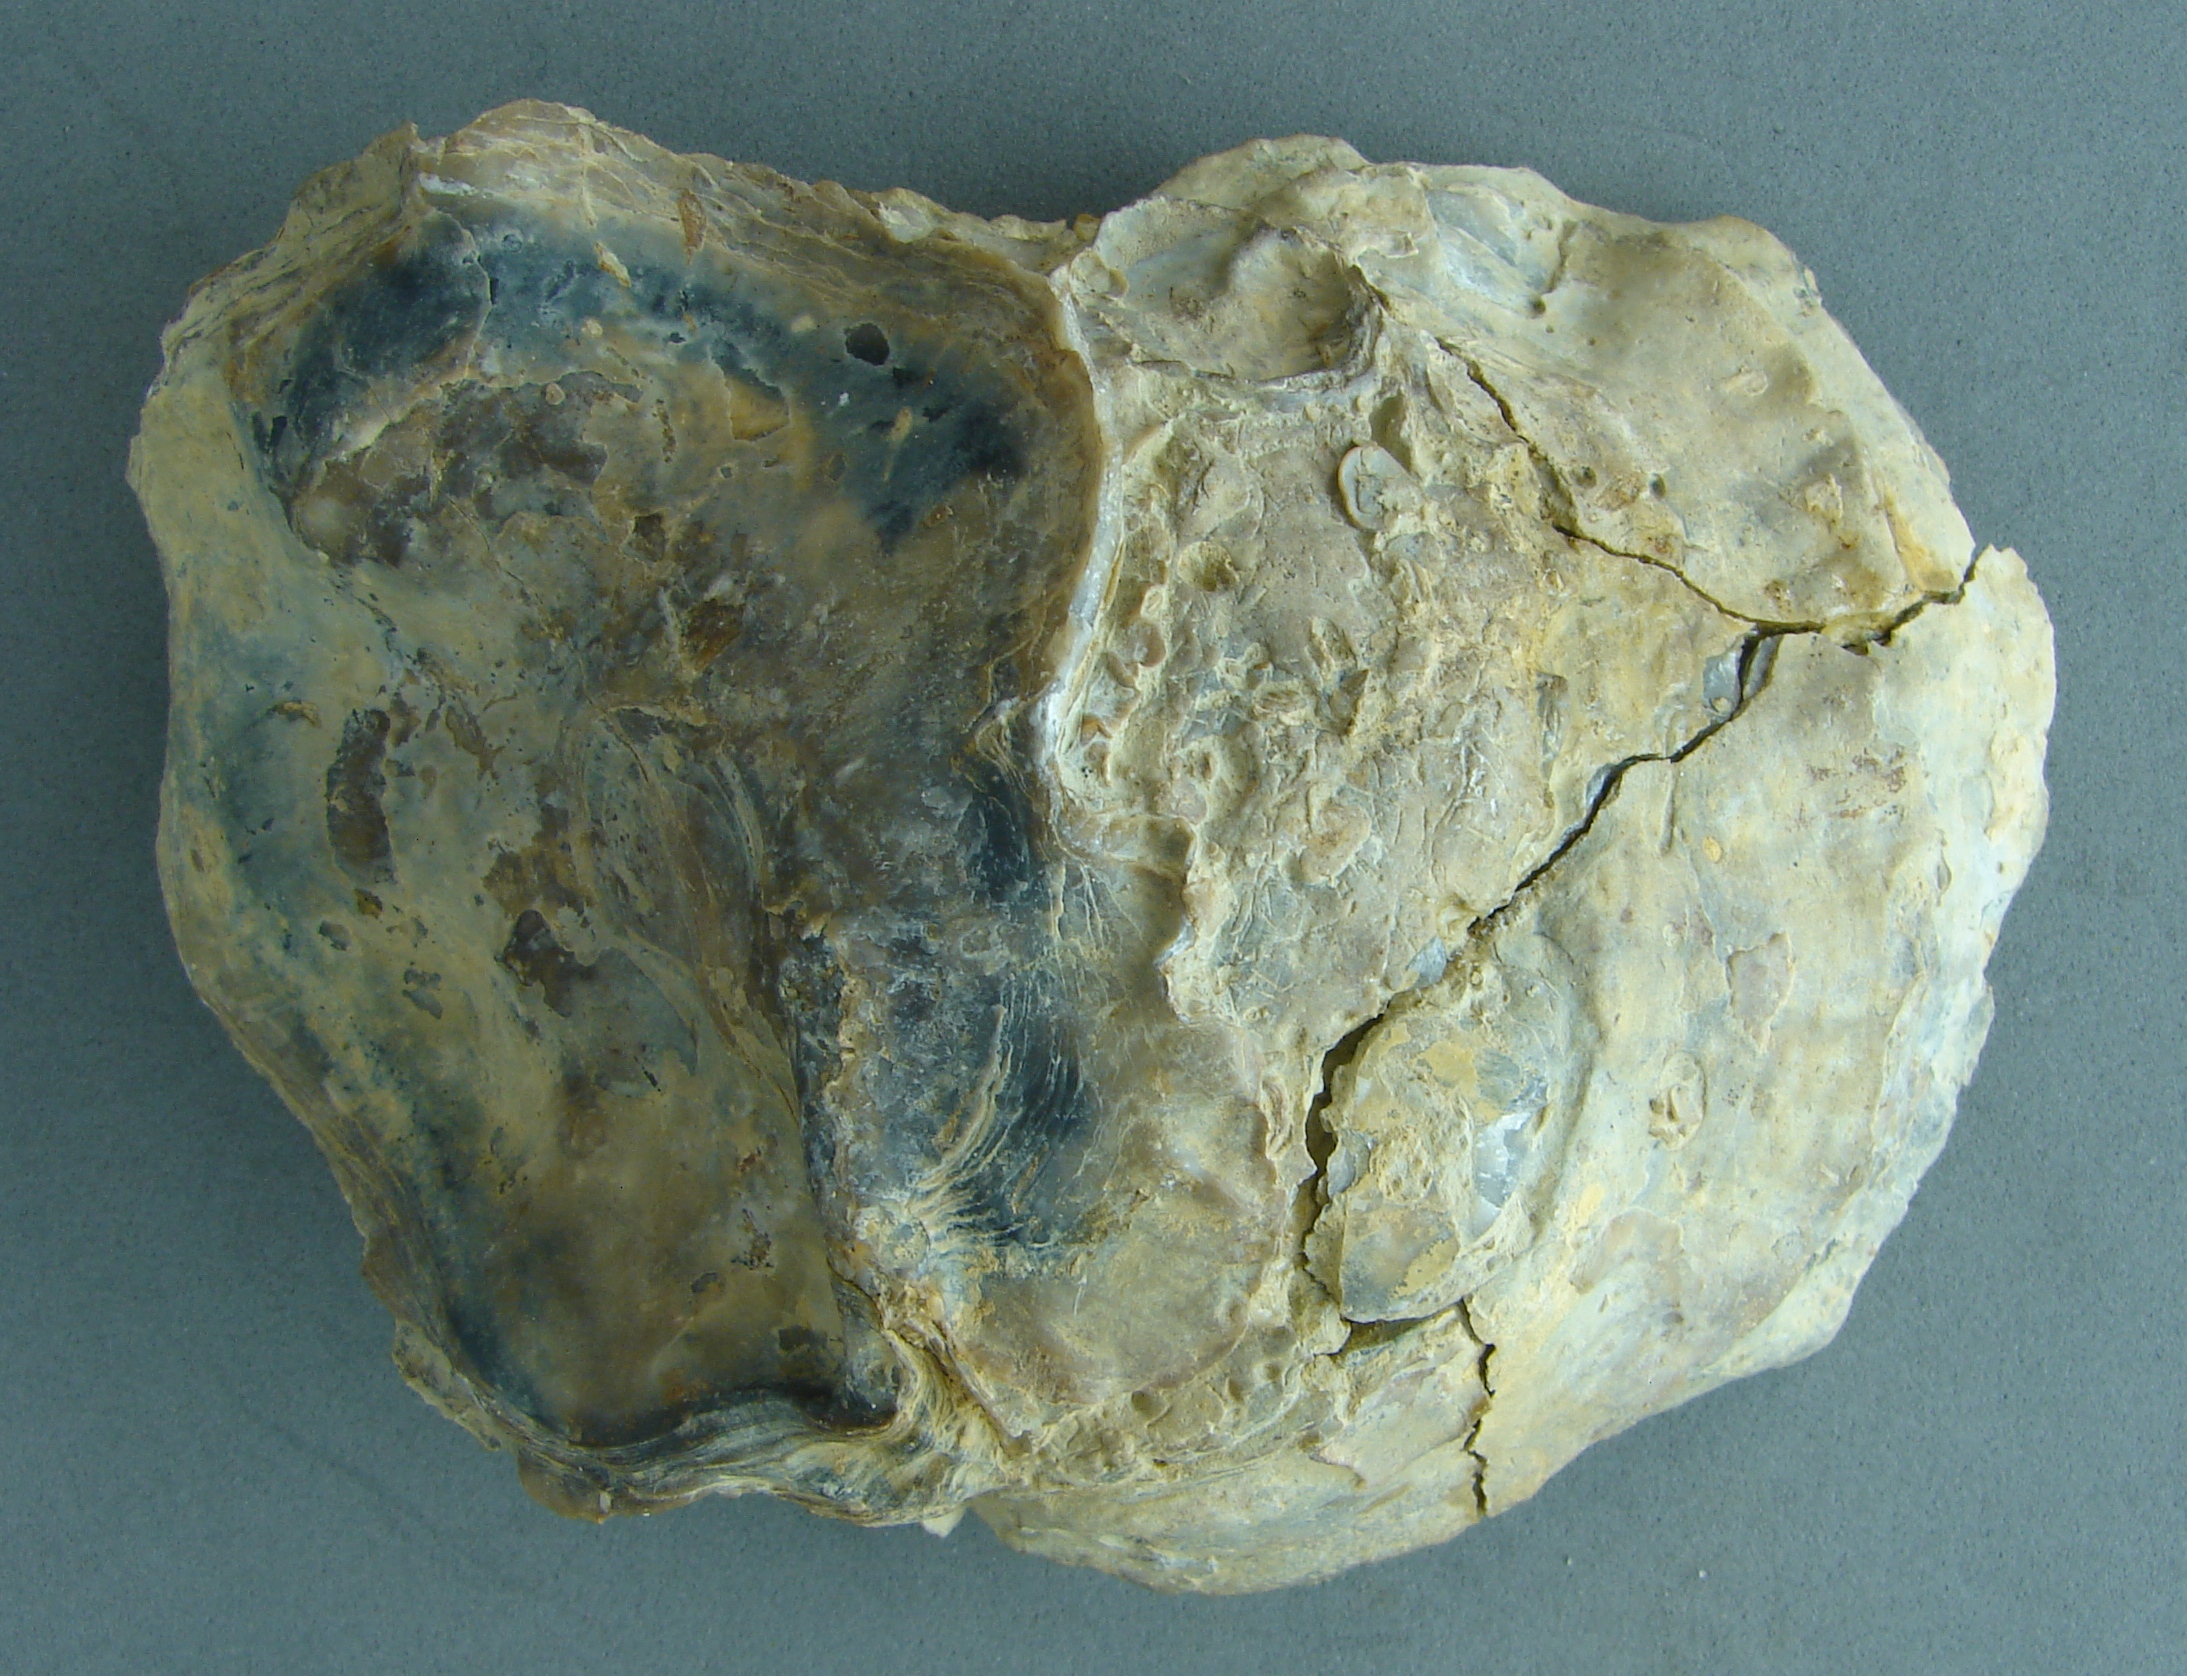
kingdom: Animalia
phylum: Mollusca
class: Bivalvia
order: Ostreida
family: Ostreidae
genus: Ostrea
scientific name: Ostrea
